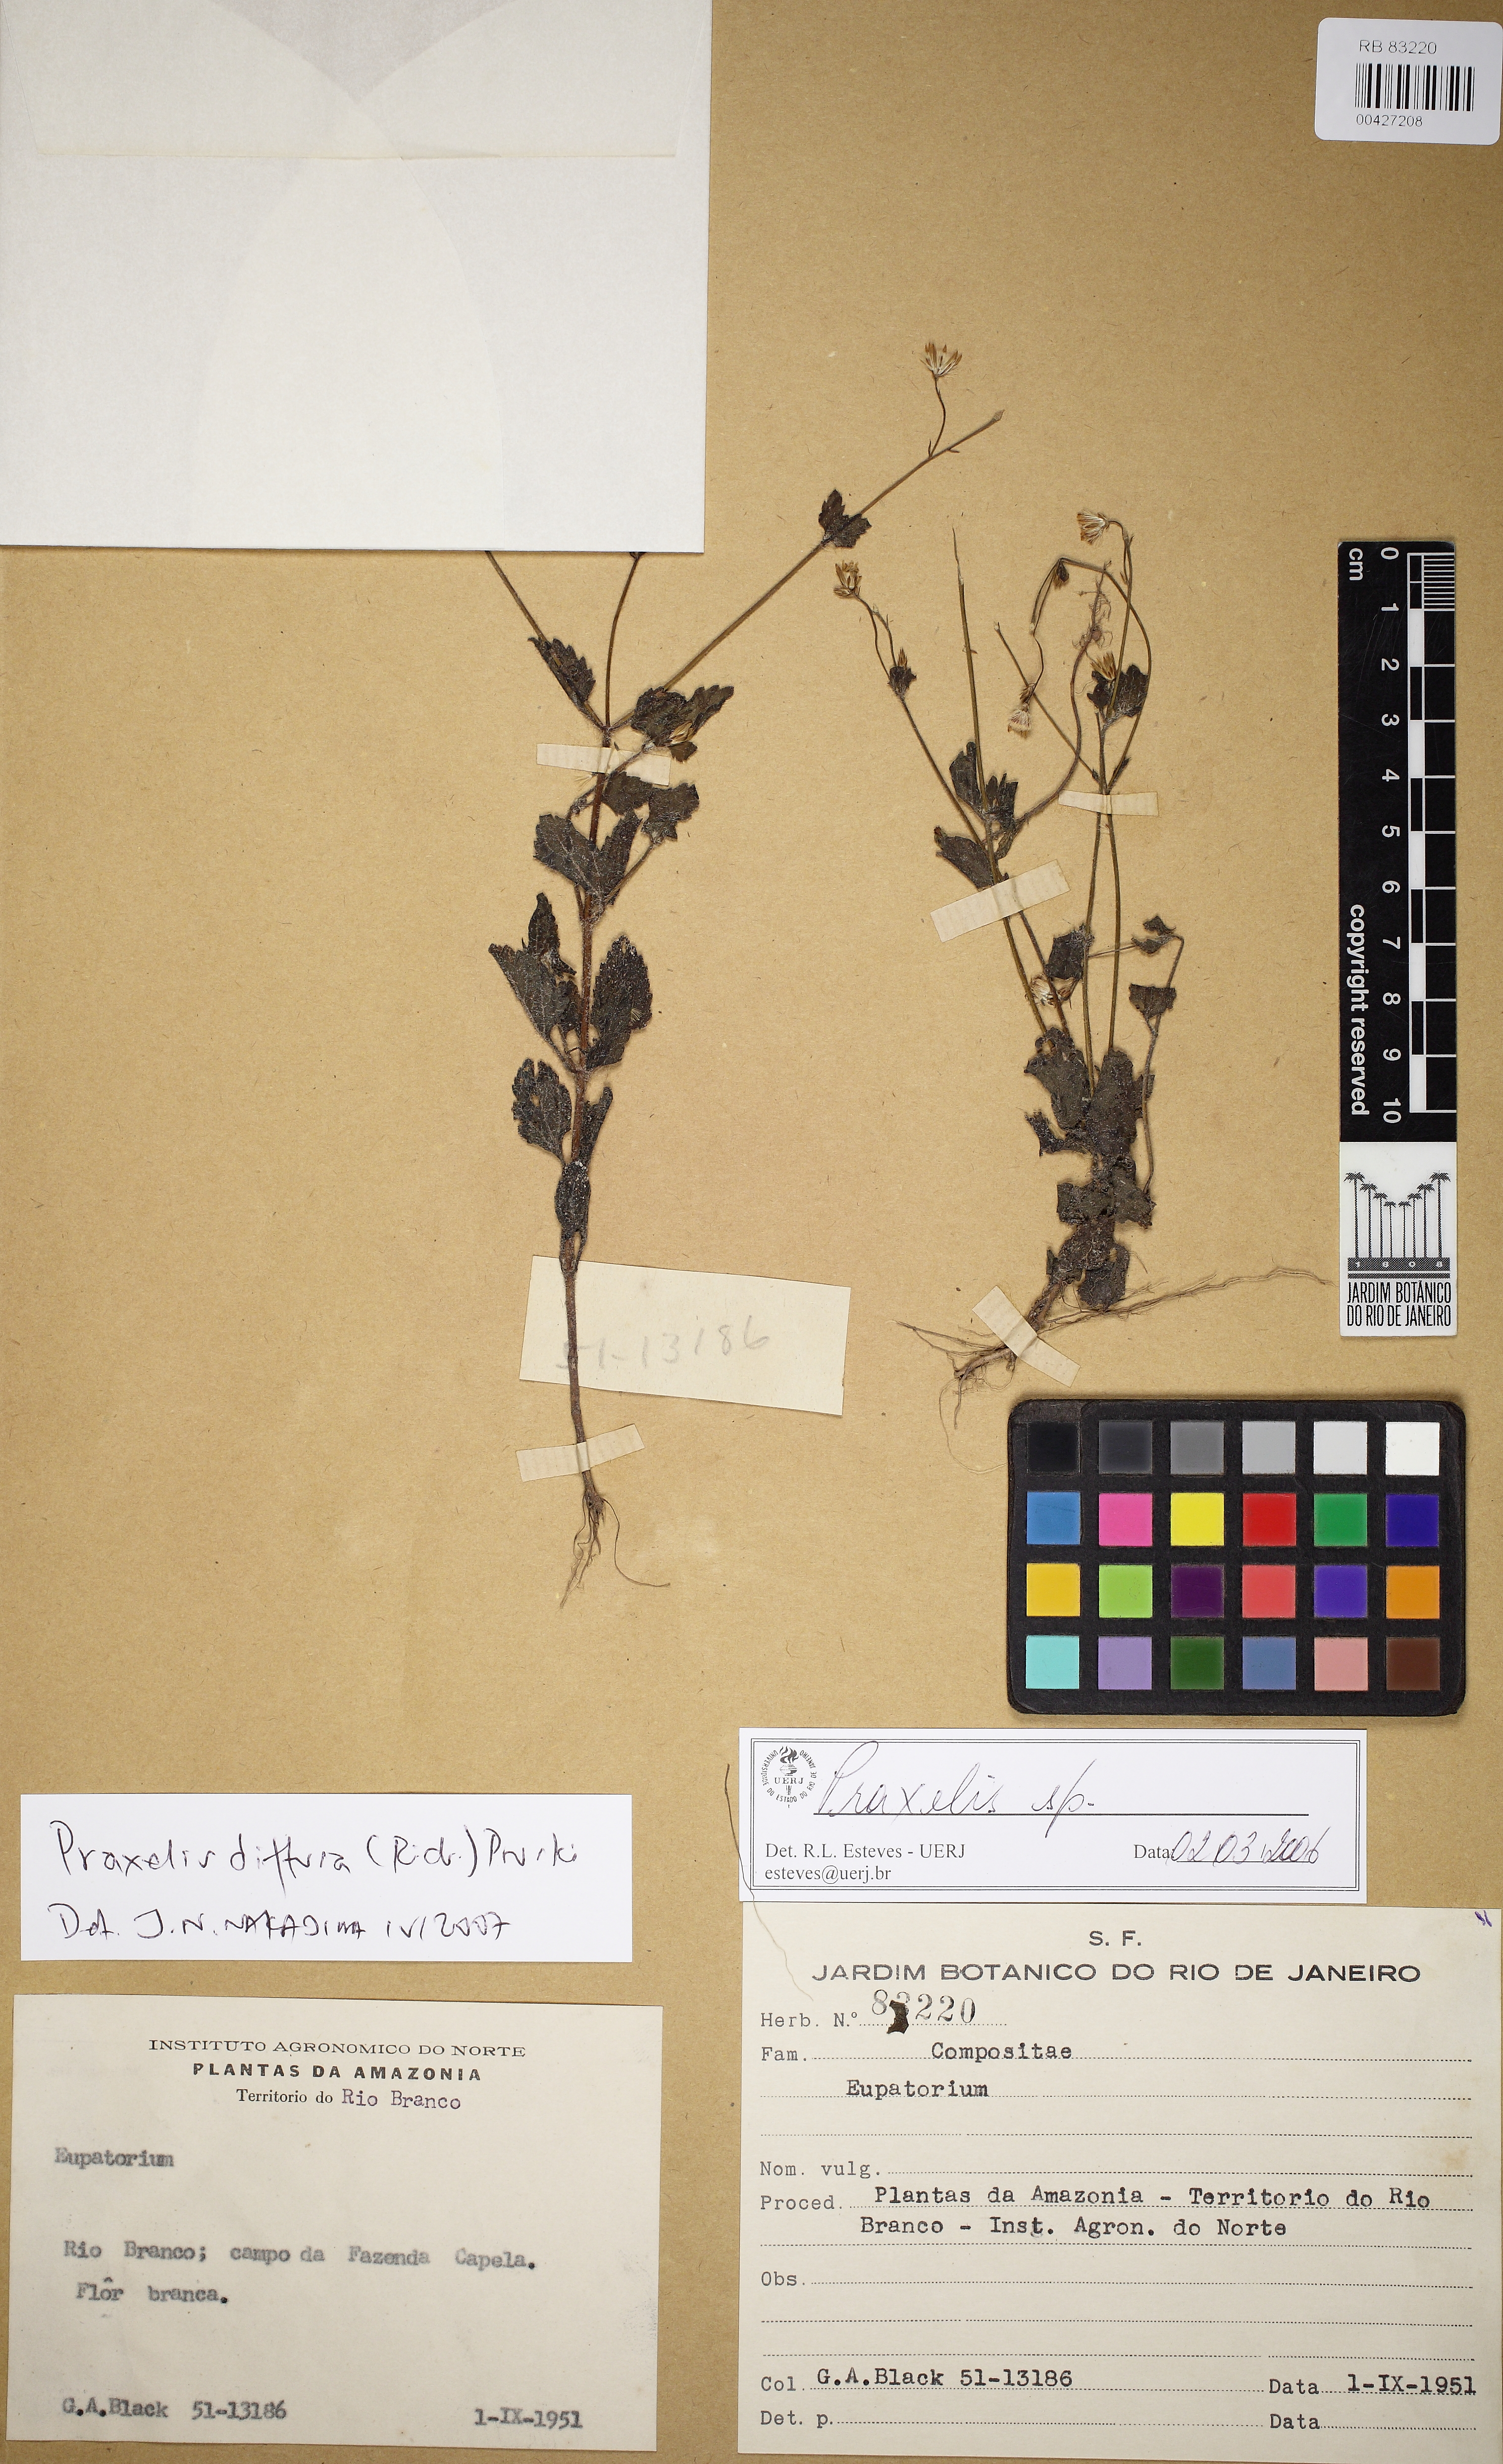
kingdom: Plantae
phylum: Tracheophyta
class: Magnoliopsida
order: Asterales
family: Asteraceae
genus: Praxelis
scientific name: Praxelis diffusa
